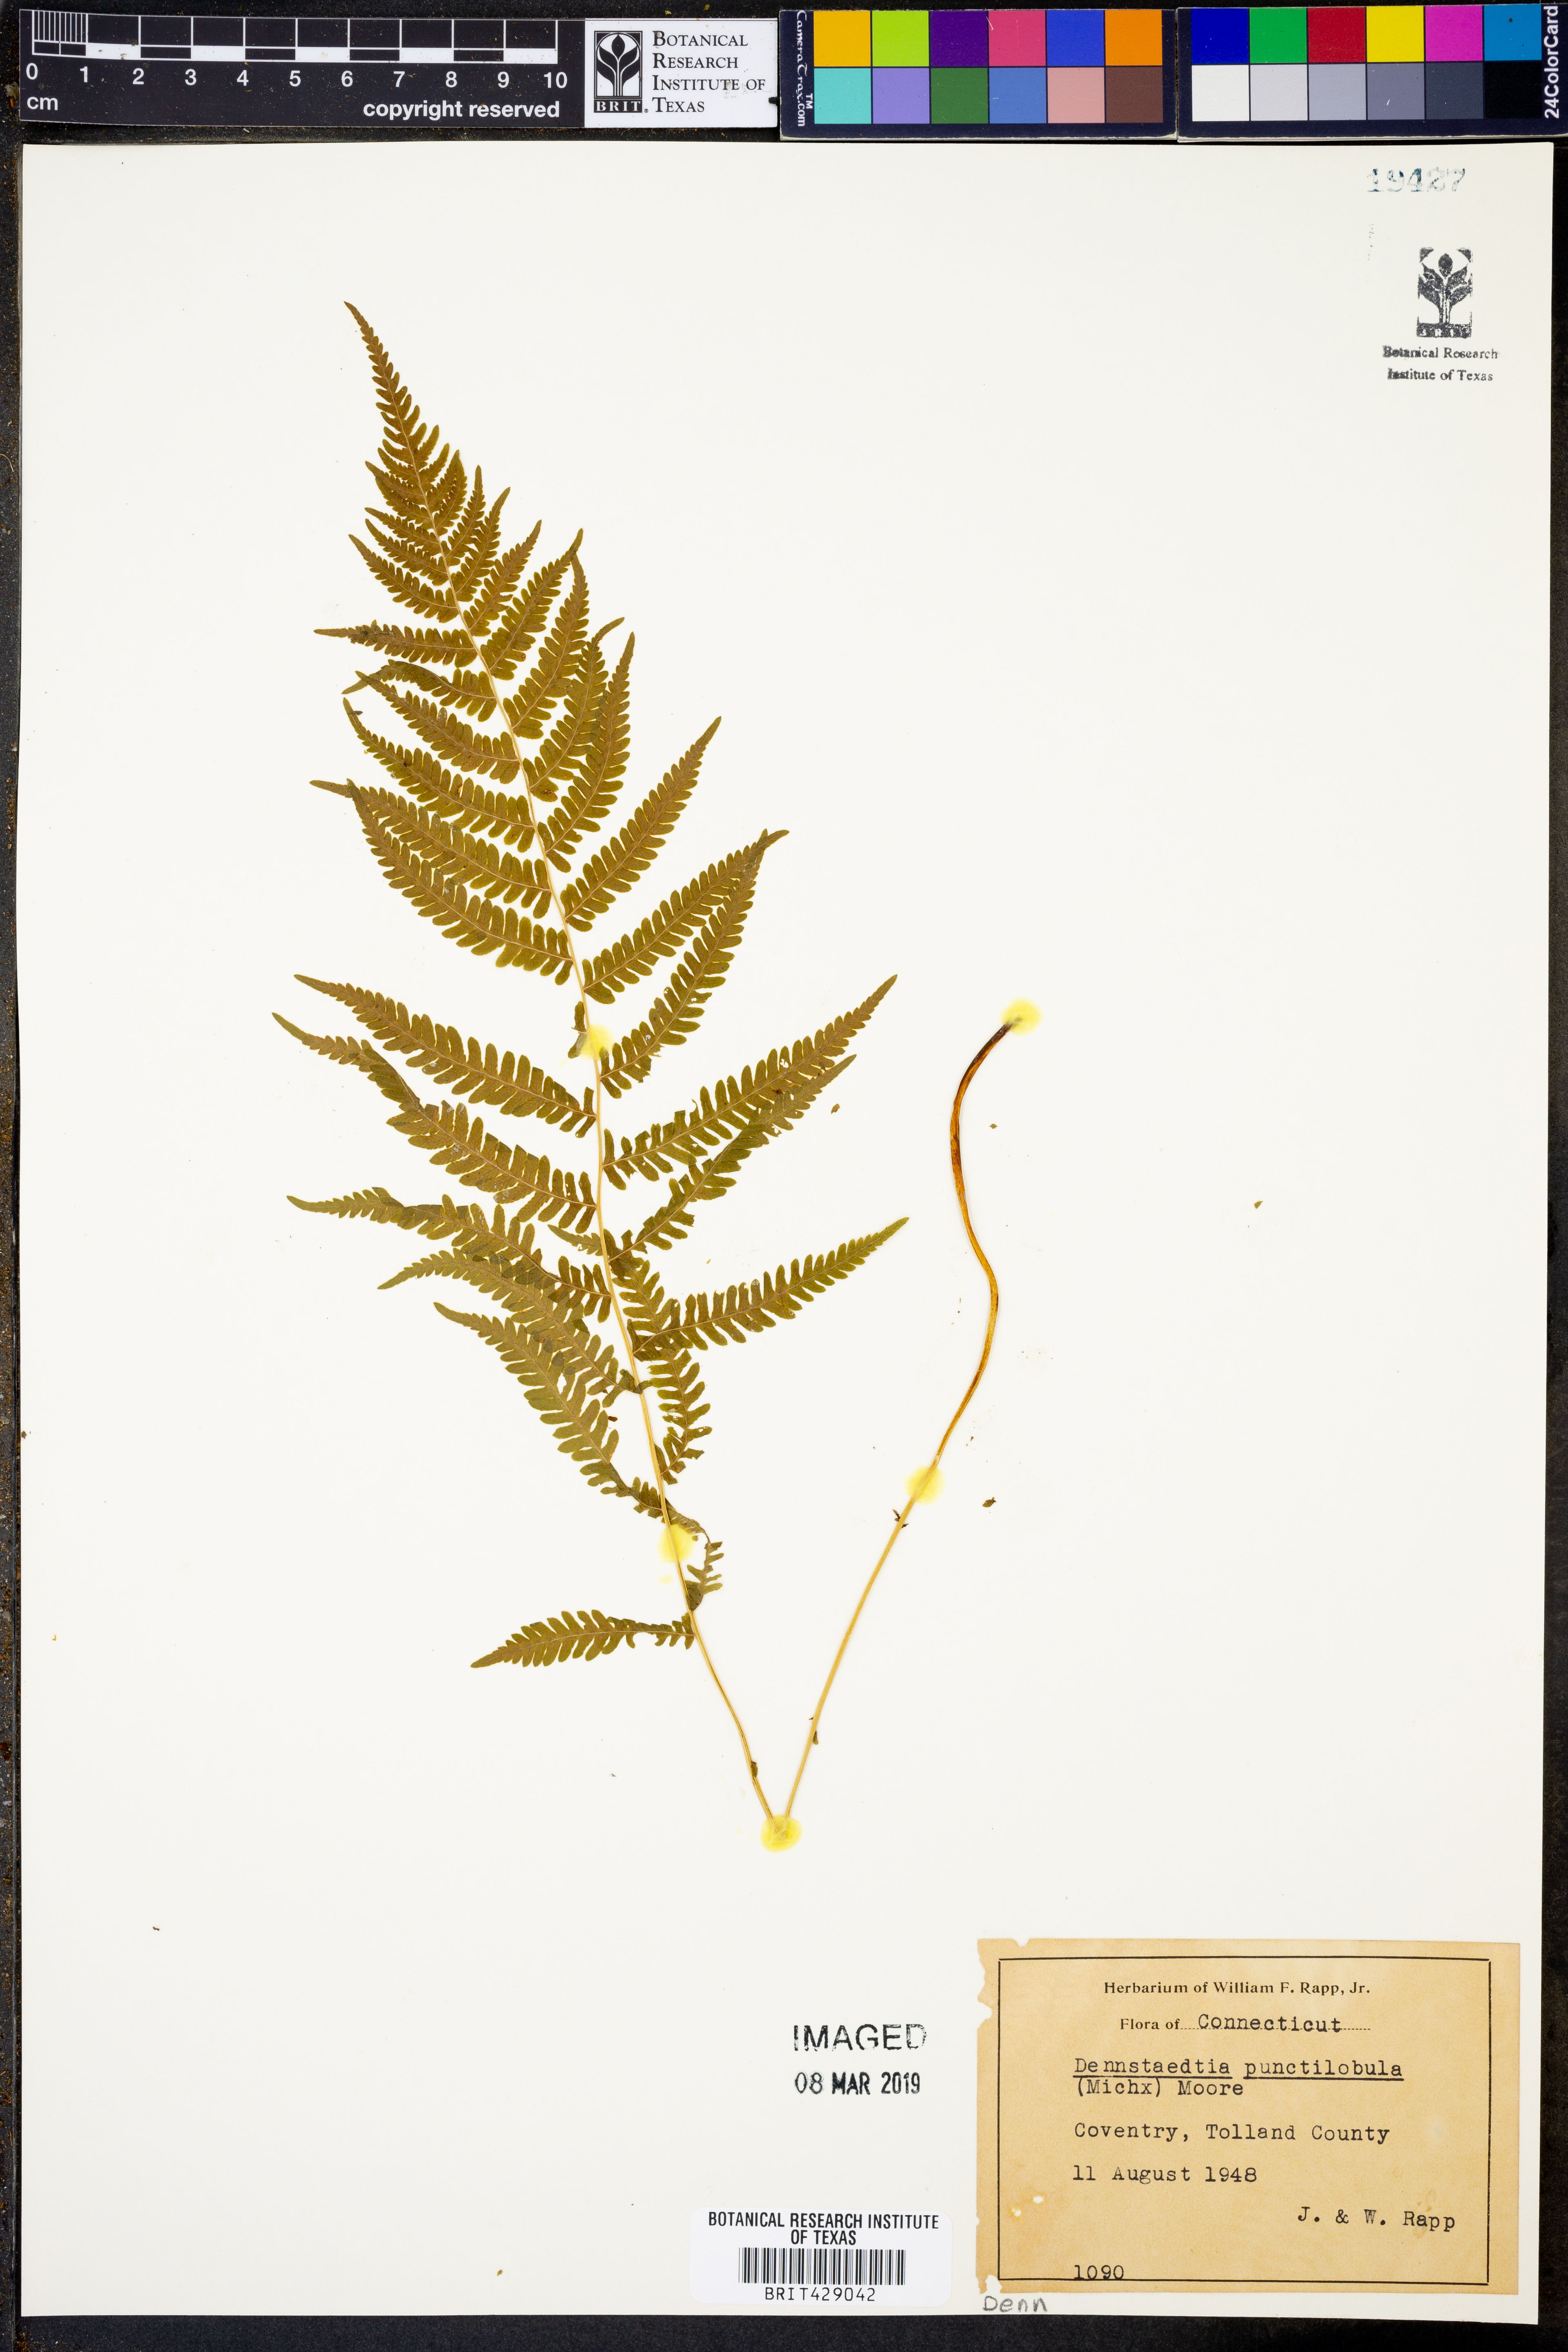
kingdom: Plantae
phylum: Tracheophyta
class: Polypodiopsida
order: Polypodiales
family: Dennstaedtiaceae
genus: Sitobolium
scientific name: Sitobolium punctilobum
